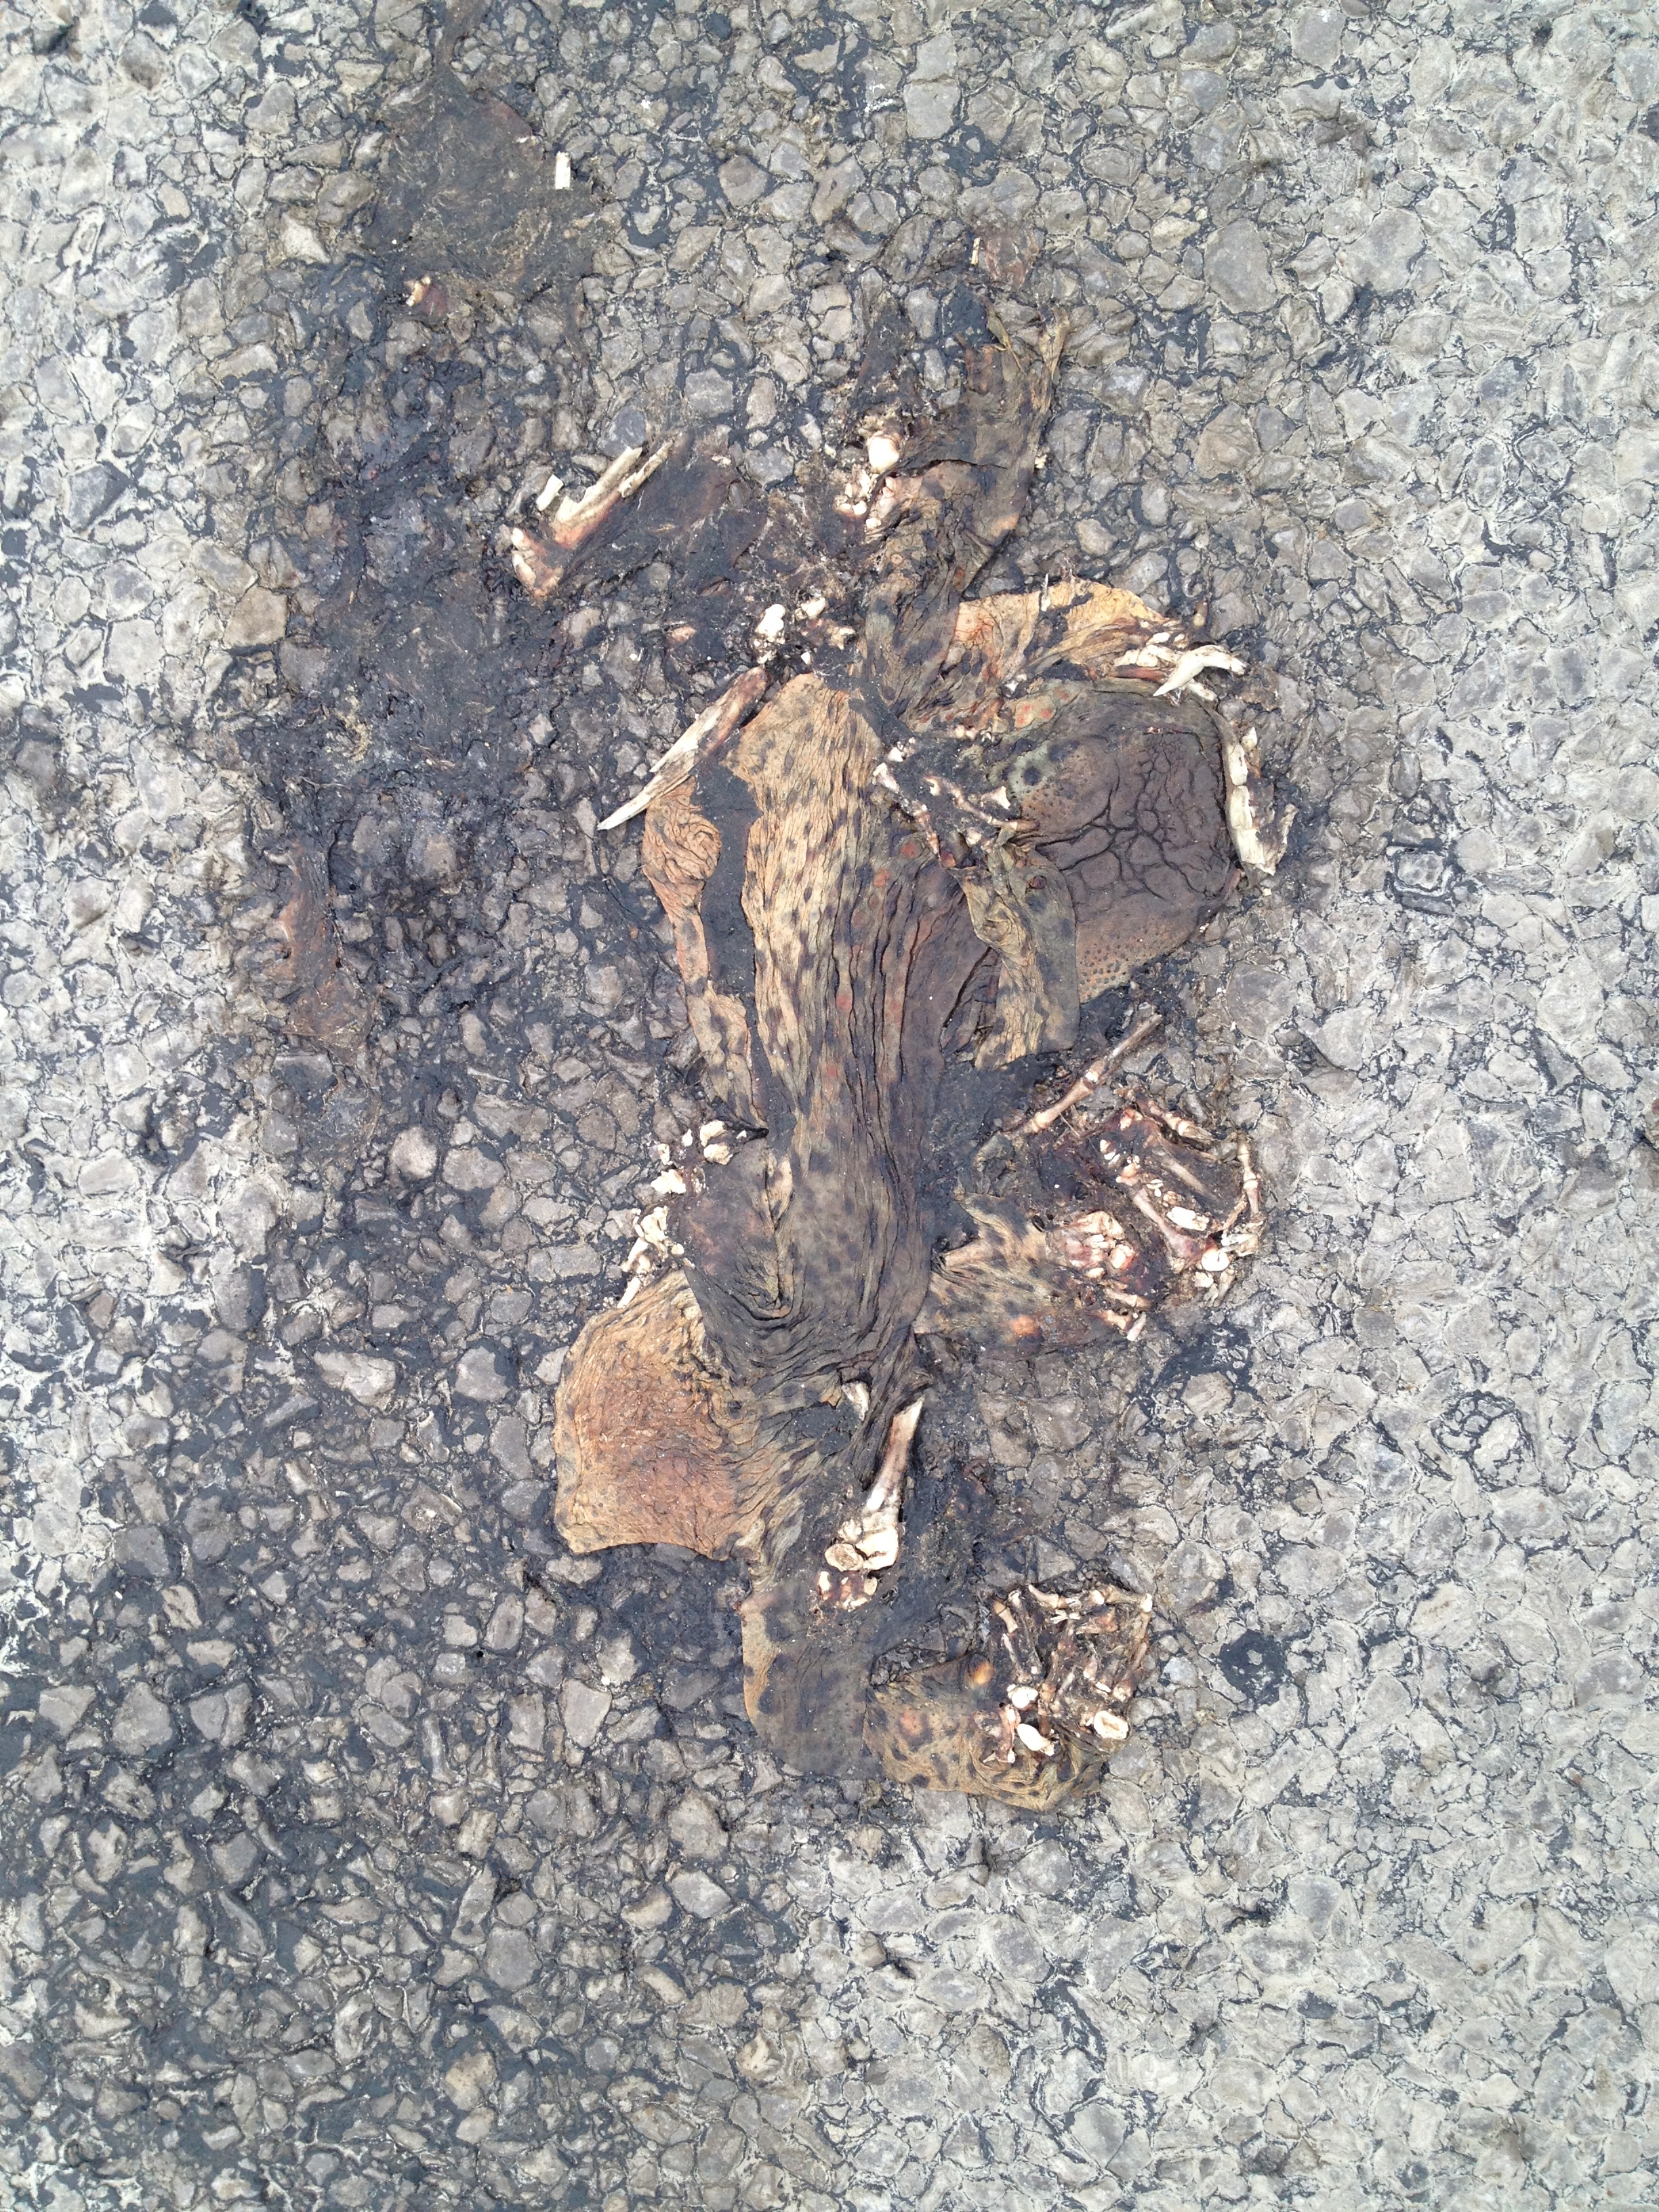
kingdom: Animalia
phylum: Chordata
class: Amphibia
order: Anura
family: Bufonidae
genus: Bufo
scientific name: Bufo bufo
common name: Common toad
